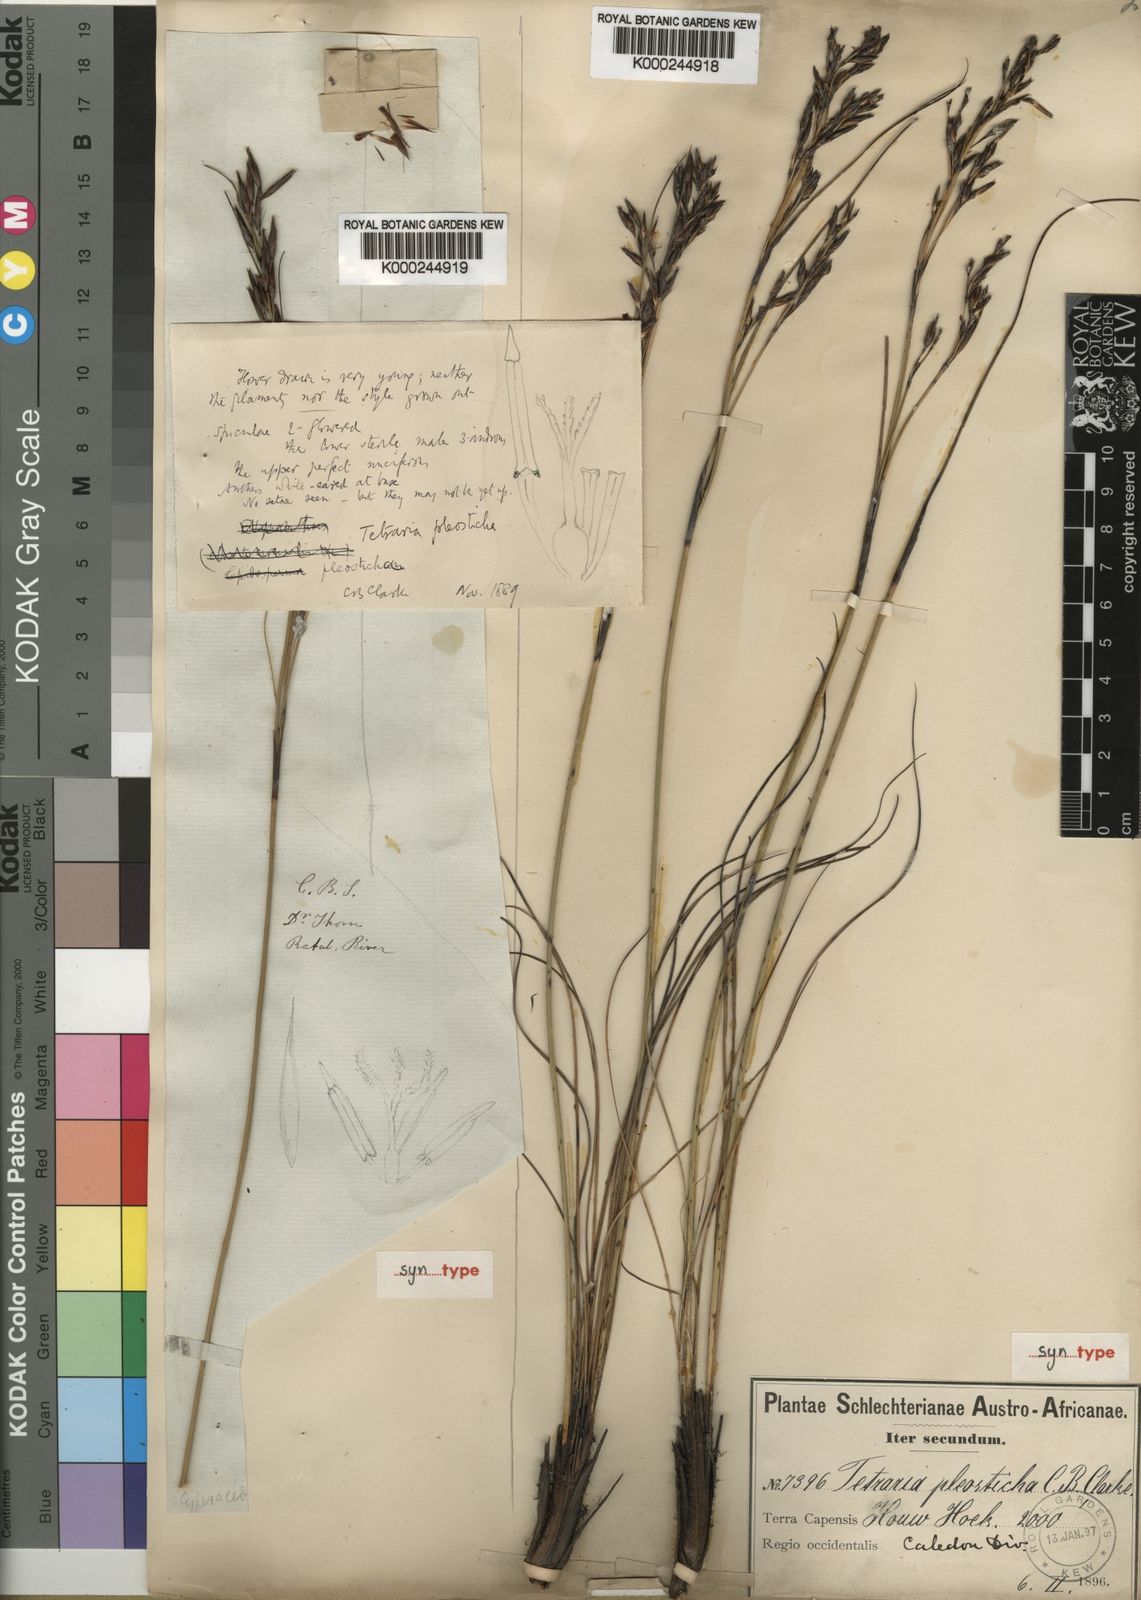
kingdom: Plantae
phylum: Tracheophyta
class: Liliopsida
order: Poales
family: Cyperaceae
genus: Tetraria
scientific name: Tetraria pleosticha
